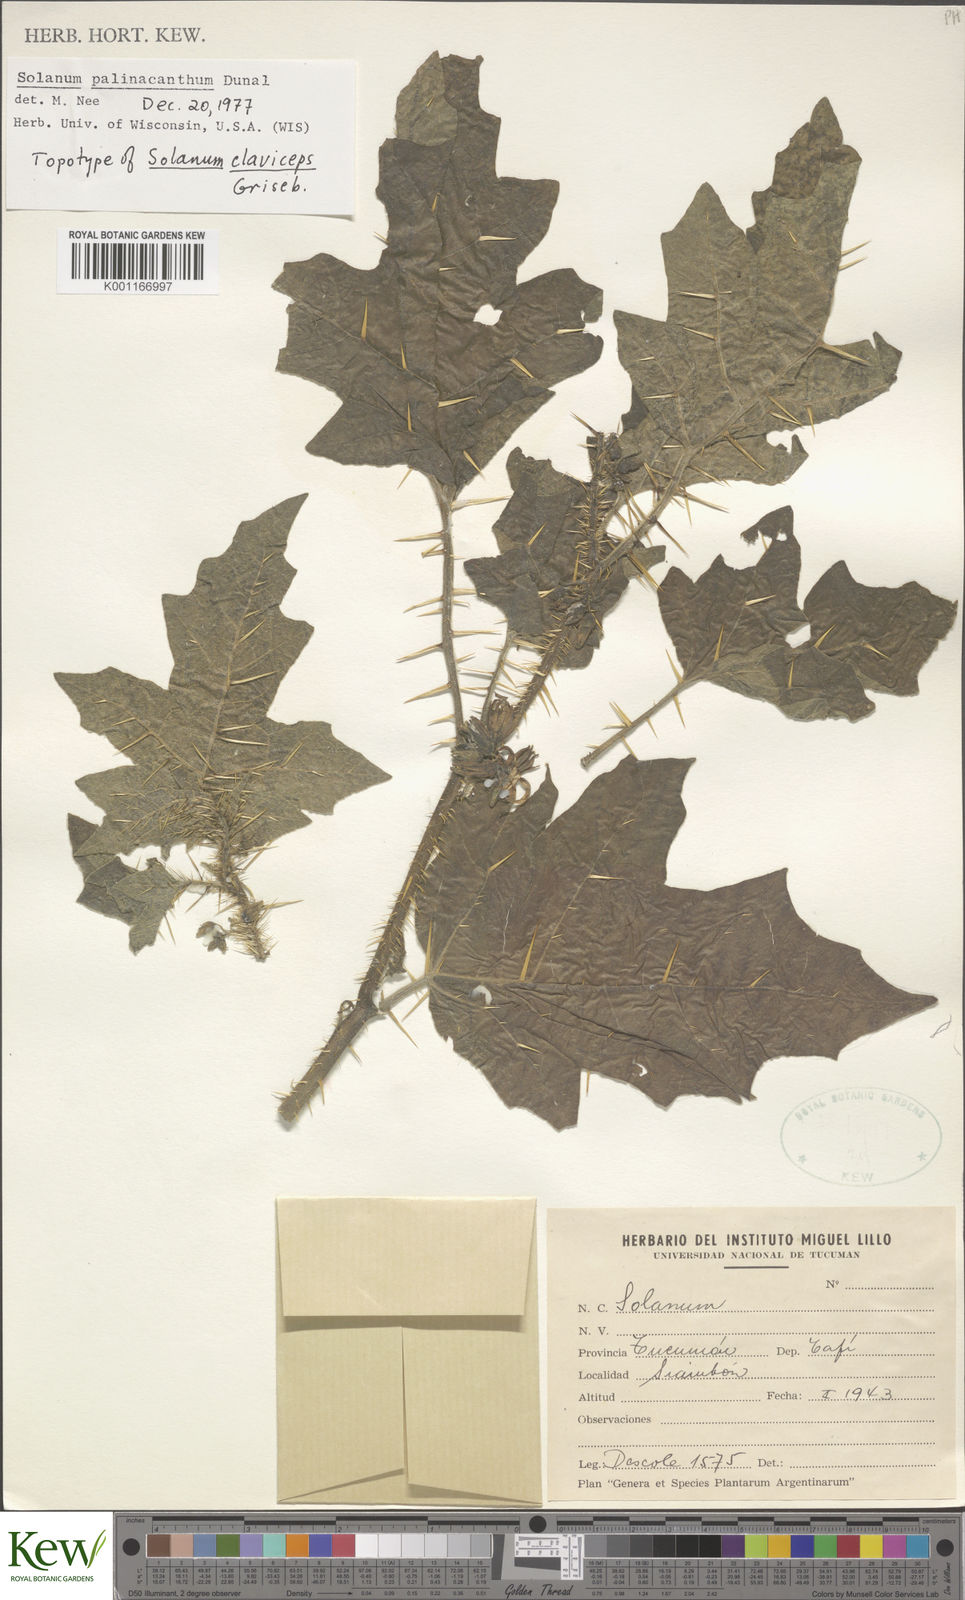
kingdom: Plantae
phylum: Tracheophyta
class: Magnoliopsida
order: Solanales
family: Solanaceae
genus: Solanum
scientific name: Solanum palinacanthum
